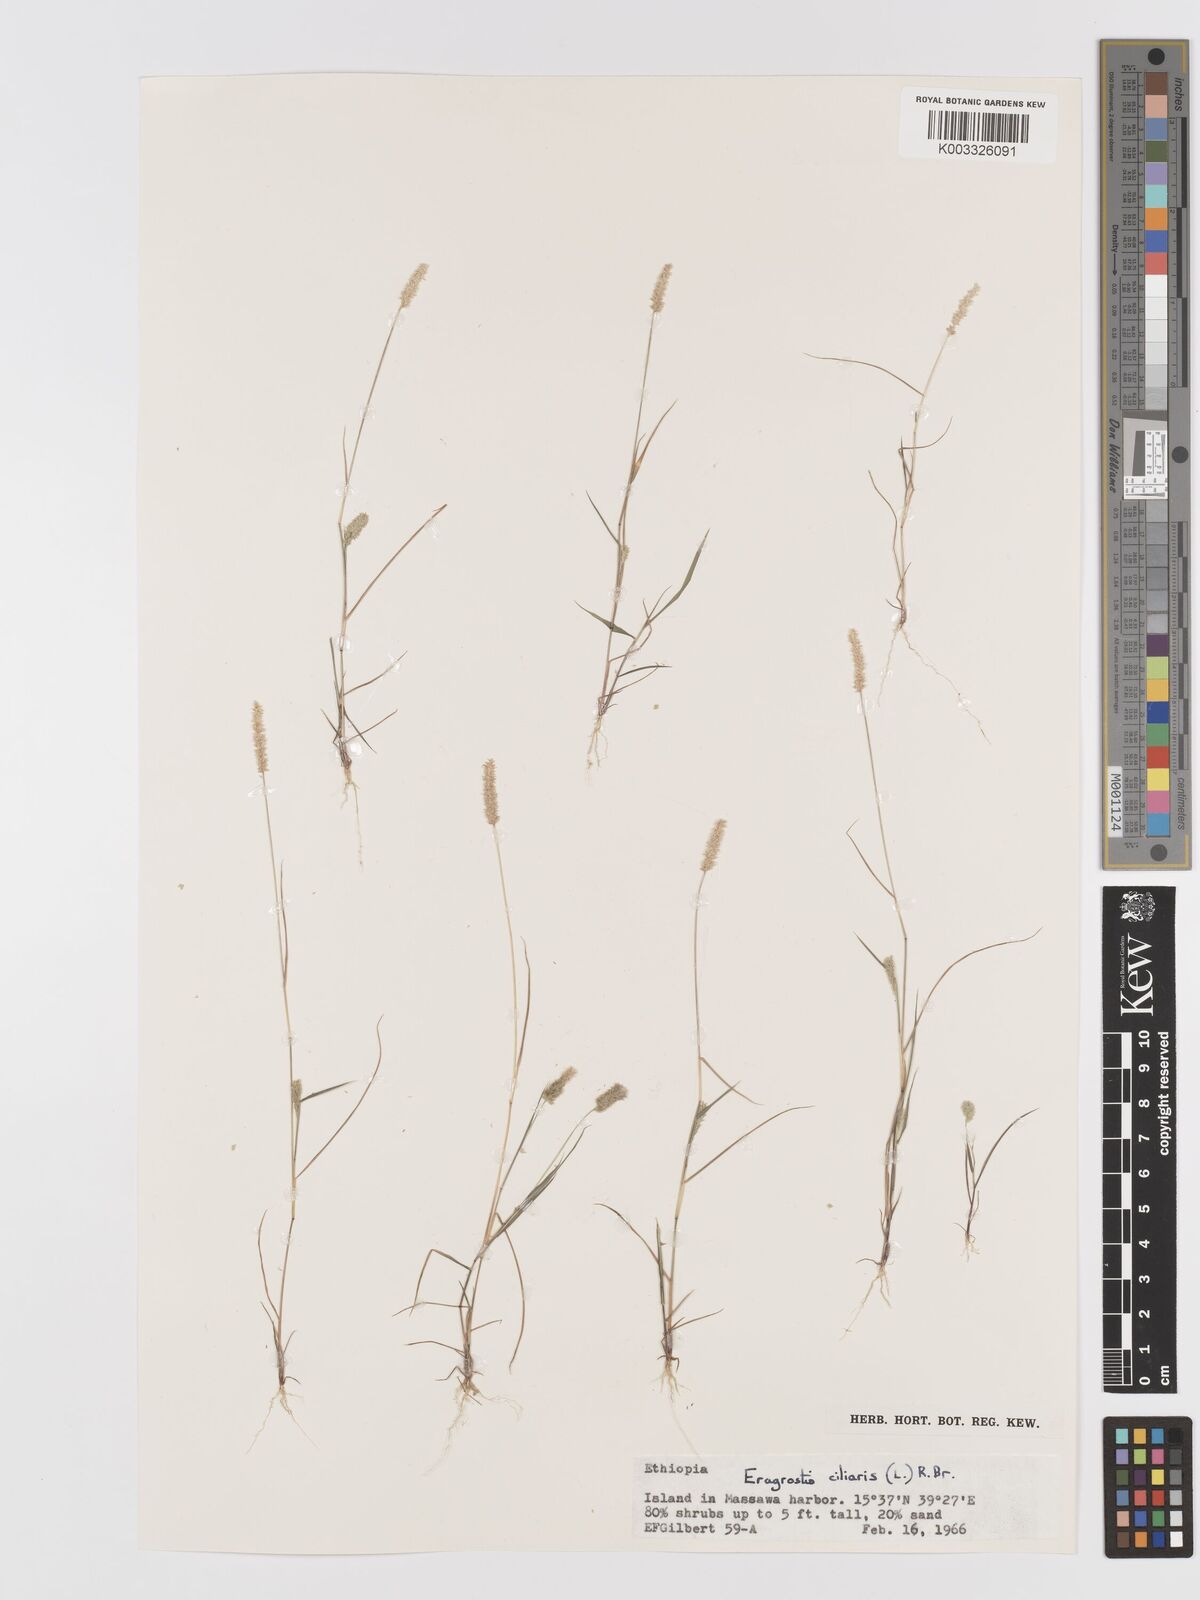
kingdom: Plantae
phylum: Tracheophyta
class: Liliopsida
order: Poales
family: Poaceae
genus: Eragrostis
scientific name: Eragrostis ciliaris
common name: Gophertail lovegrass
